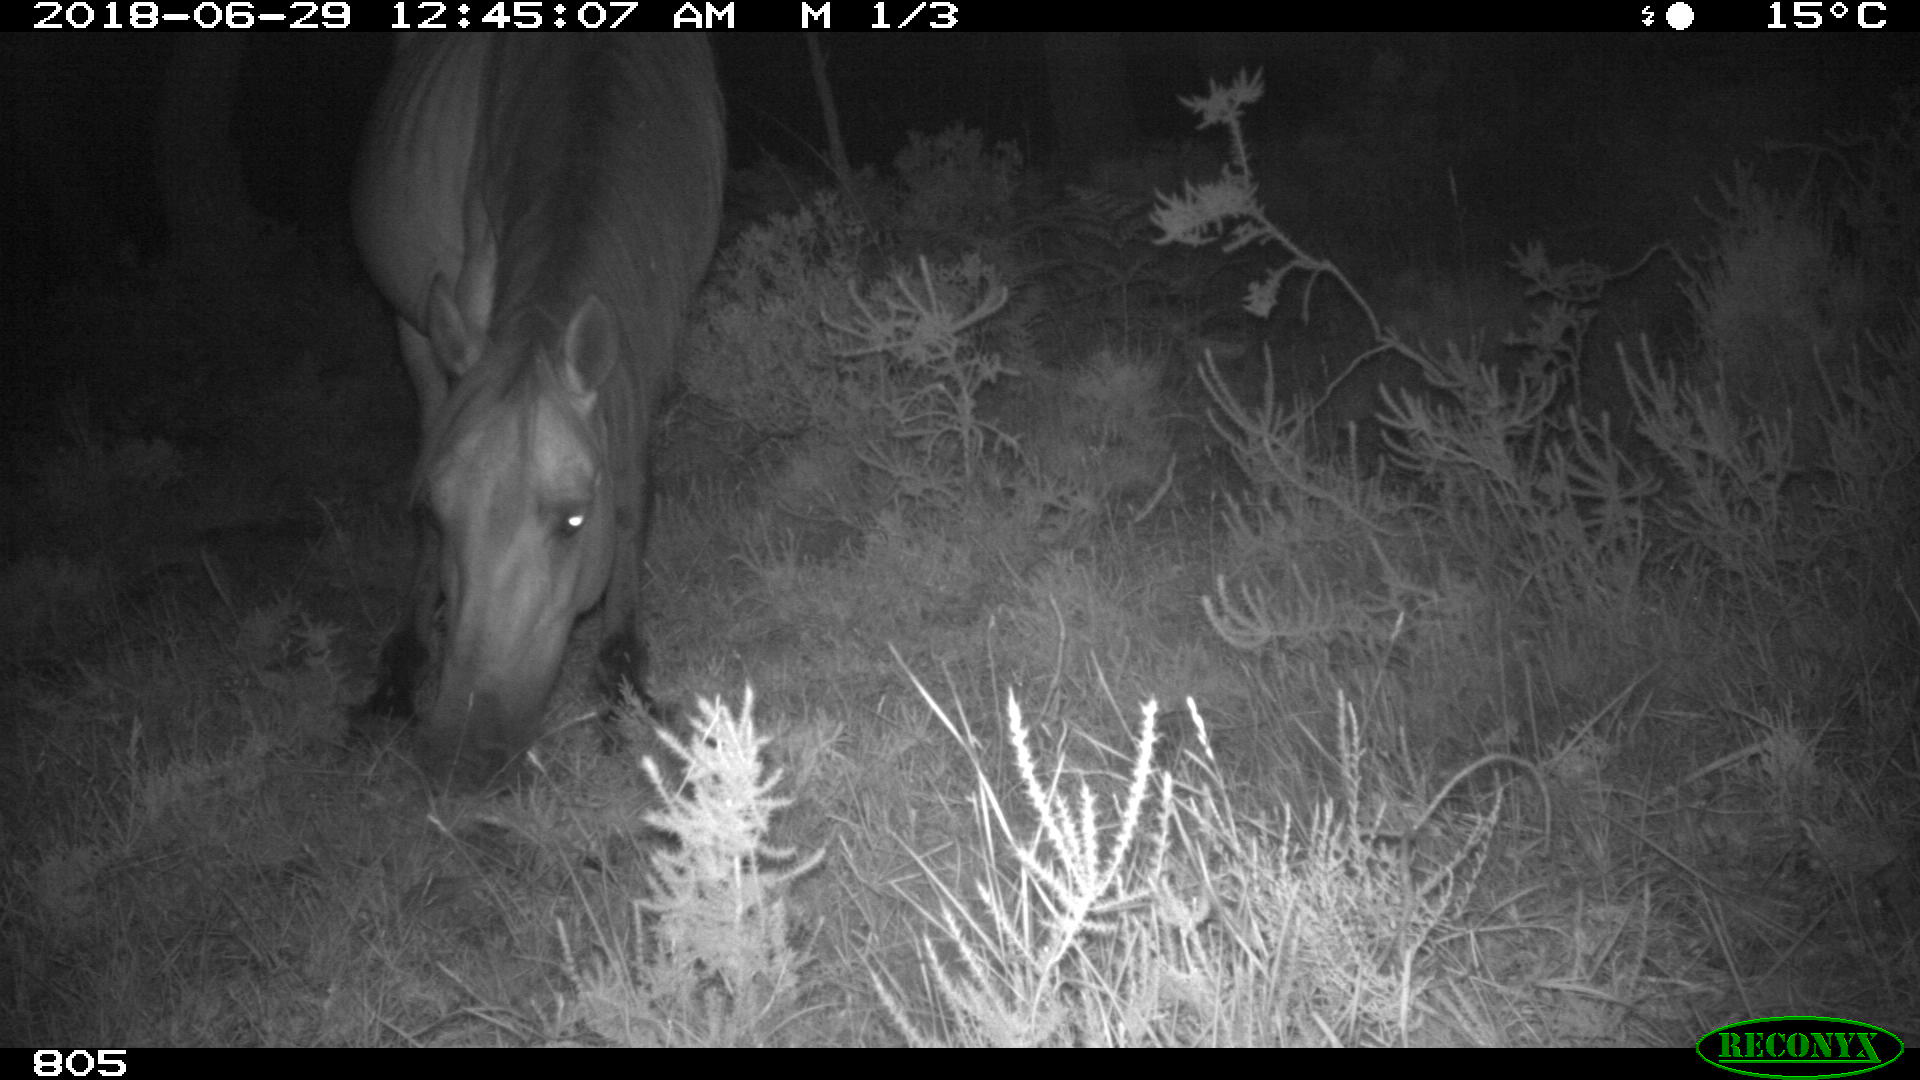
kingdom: Animalia
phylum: Chordata
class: Mammalia
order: Perissodactyla
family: Equidae
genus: Equus
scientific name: Equus caballus
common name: Horse
